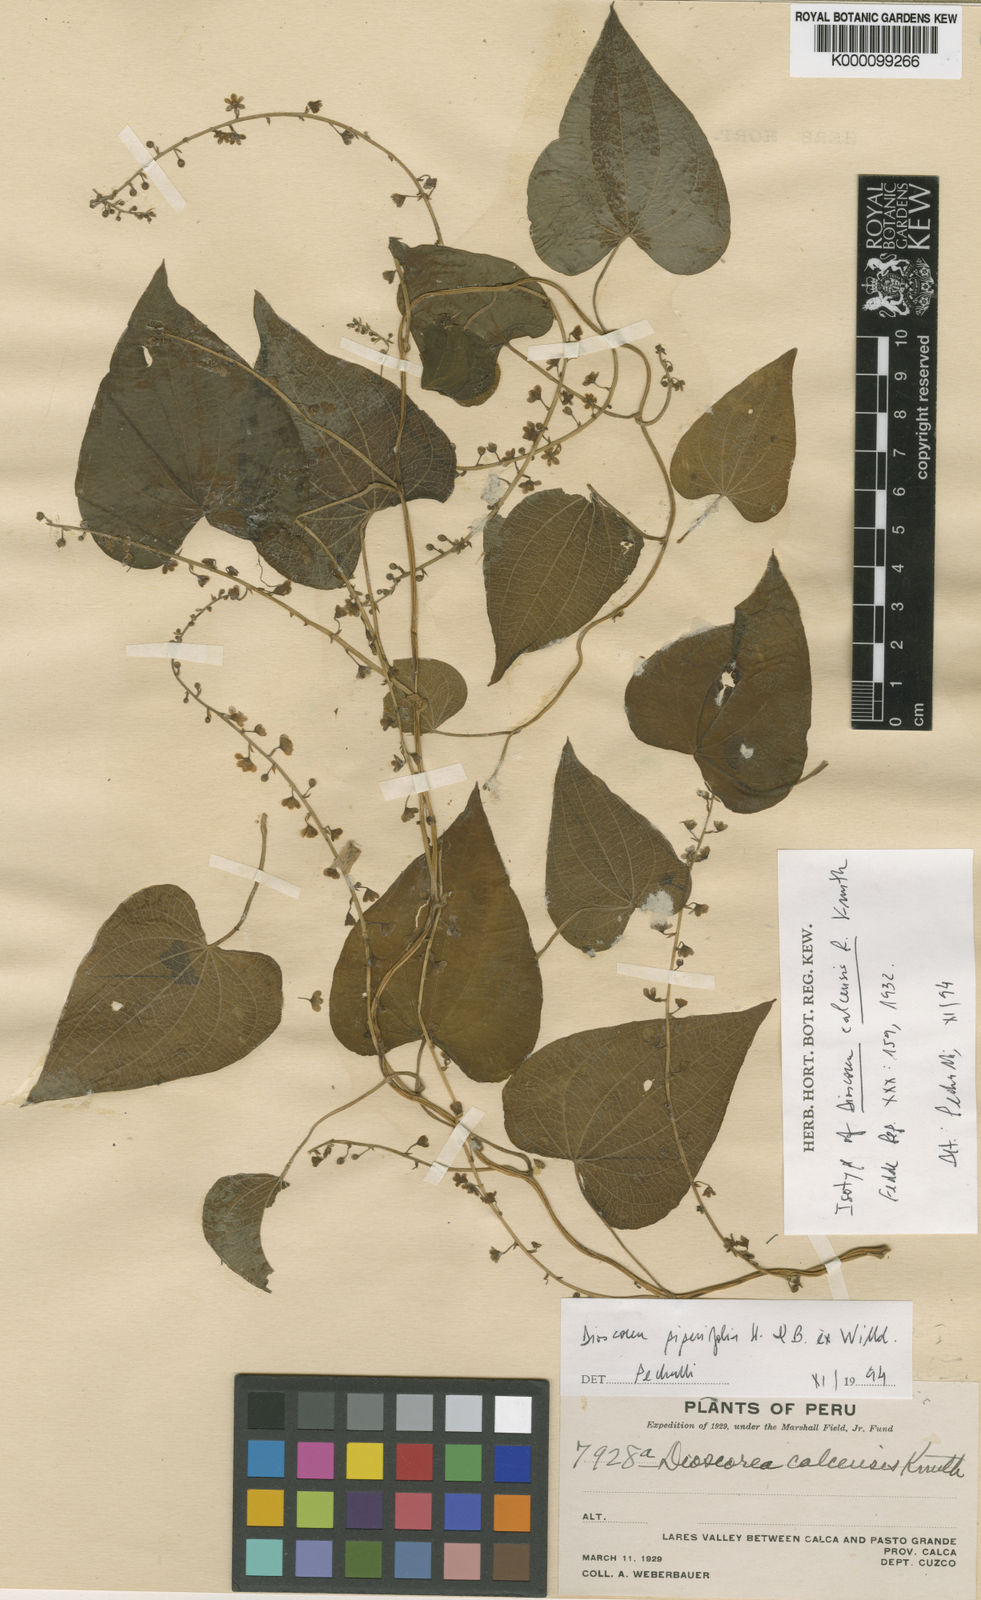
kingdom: Plantae
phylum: Tracheophyta
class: Liliopsida
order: Dioscoreales
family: Dioscoreaceae
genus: Dioscorea
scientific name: Dioscorea glandulosa
